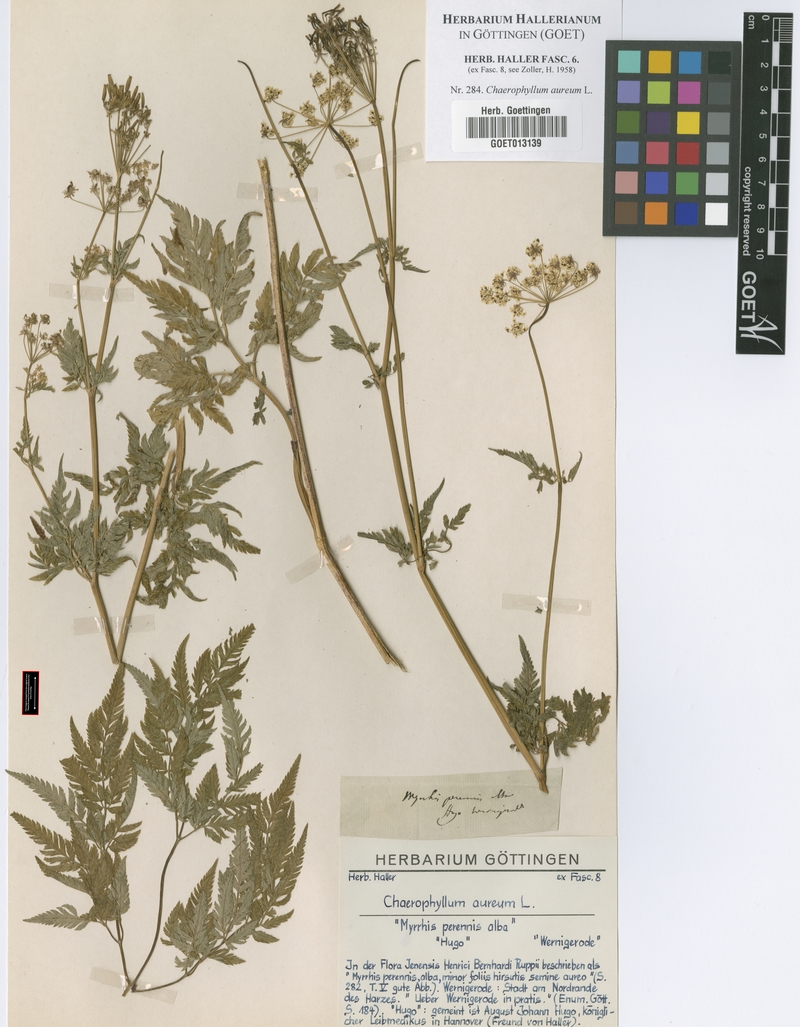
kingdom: Plantae
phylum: Tracheophyta
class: Magnoliopsida
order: Apiales
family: Apiaceae
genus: Chaerophyllum
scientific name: Chaerophyllum aureum
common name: Golden chervil
